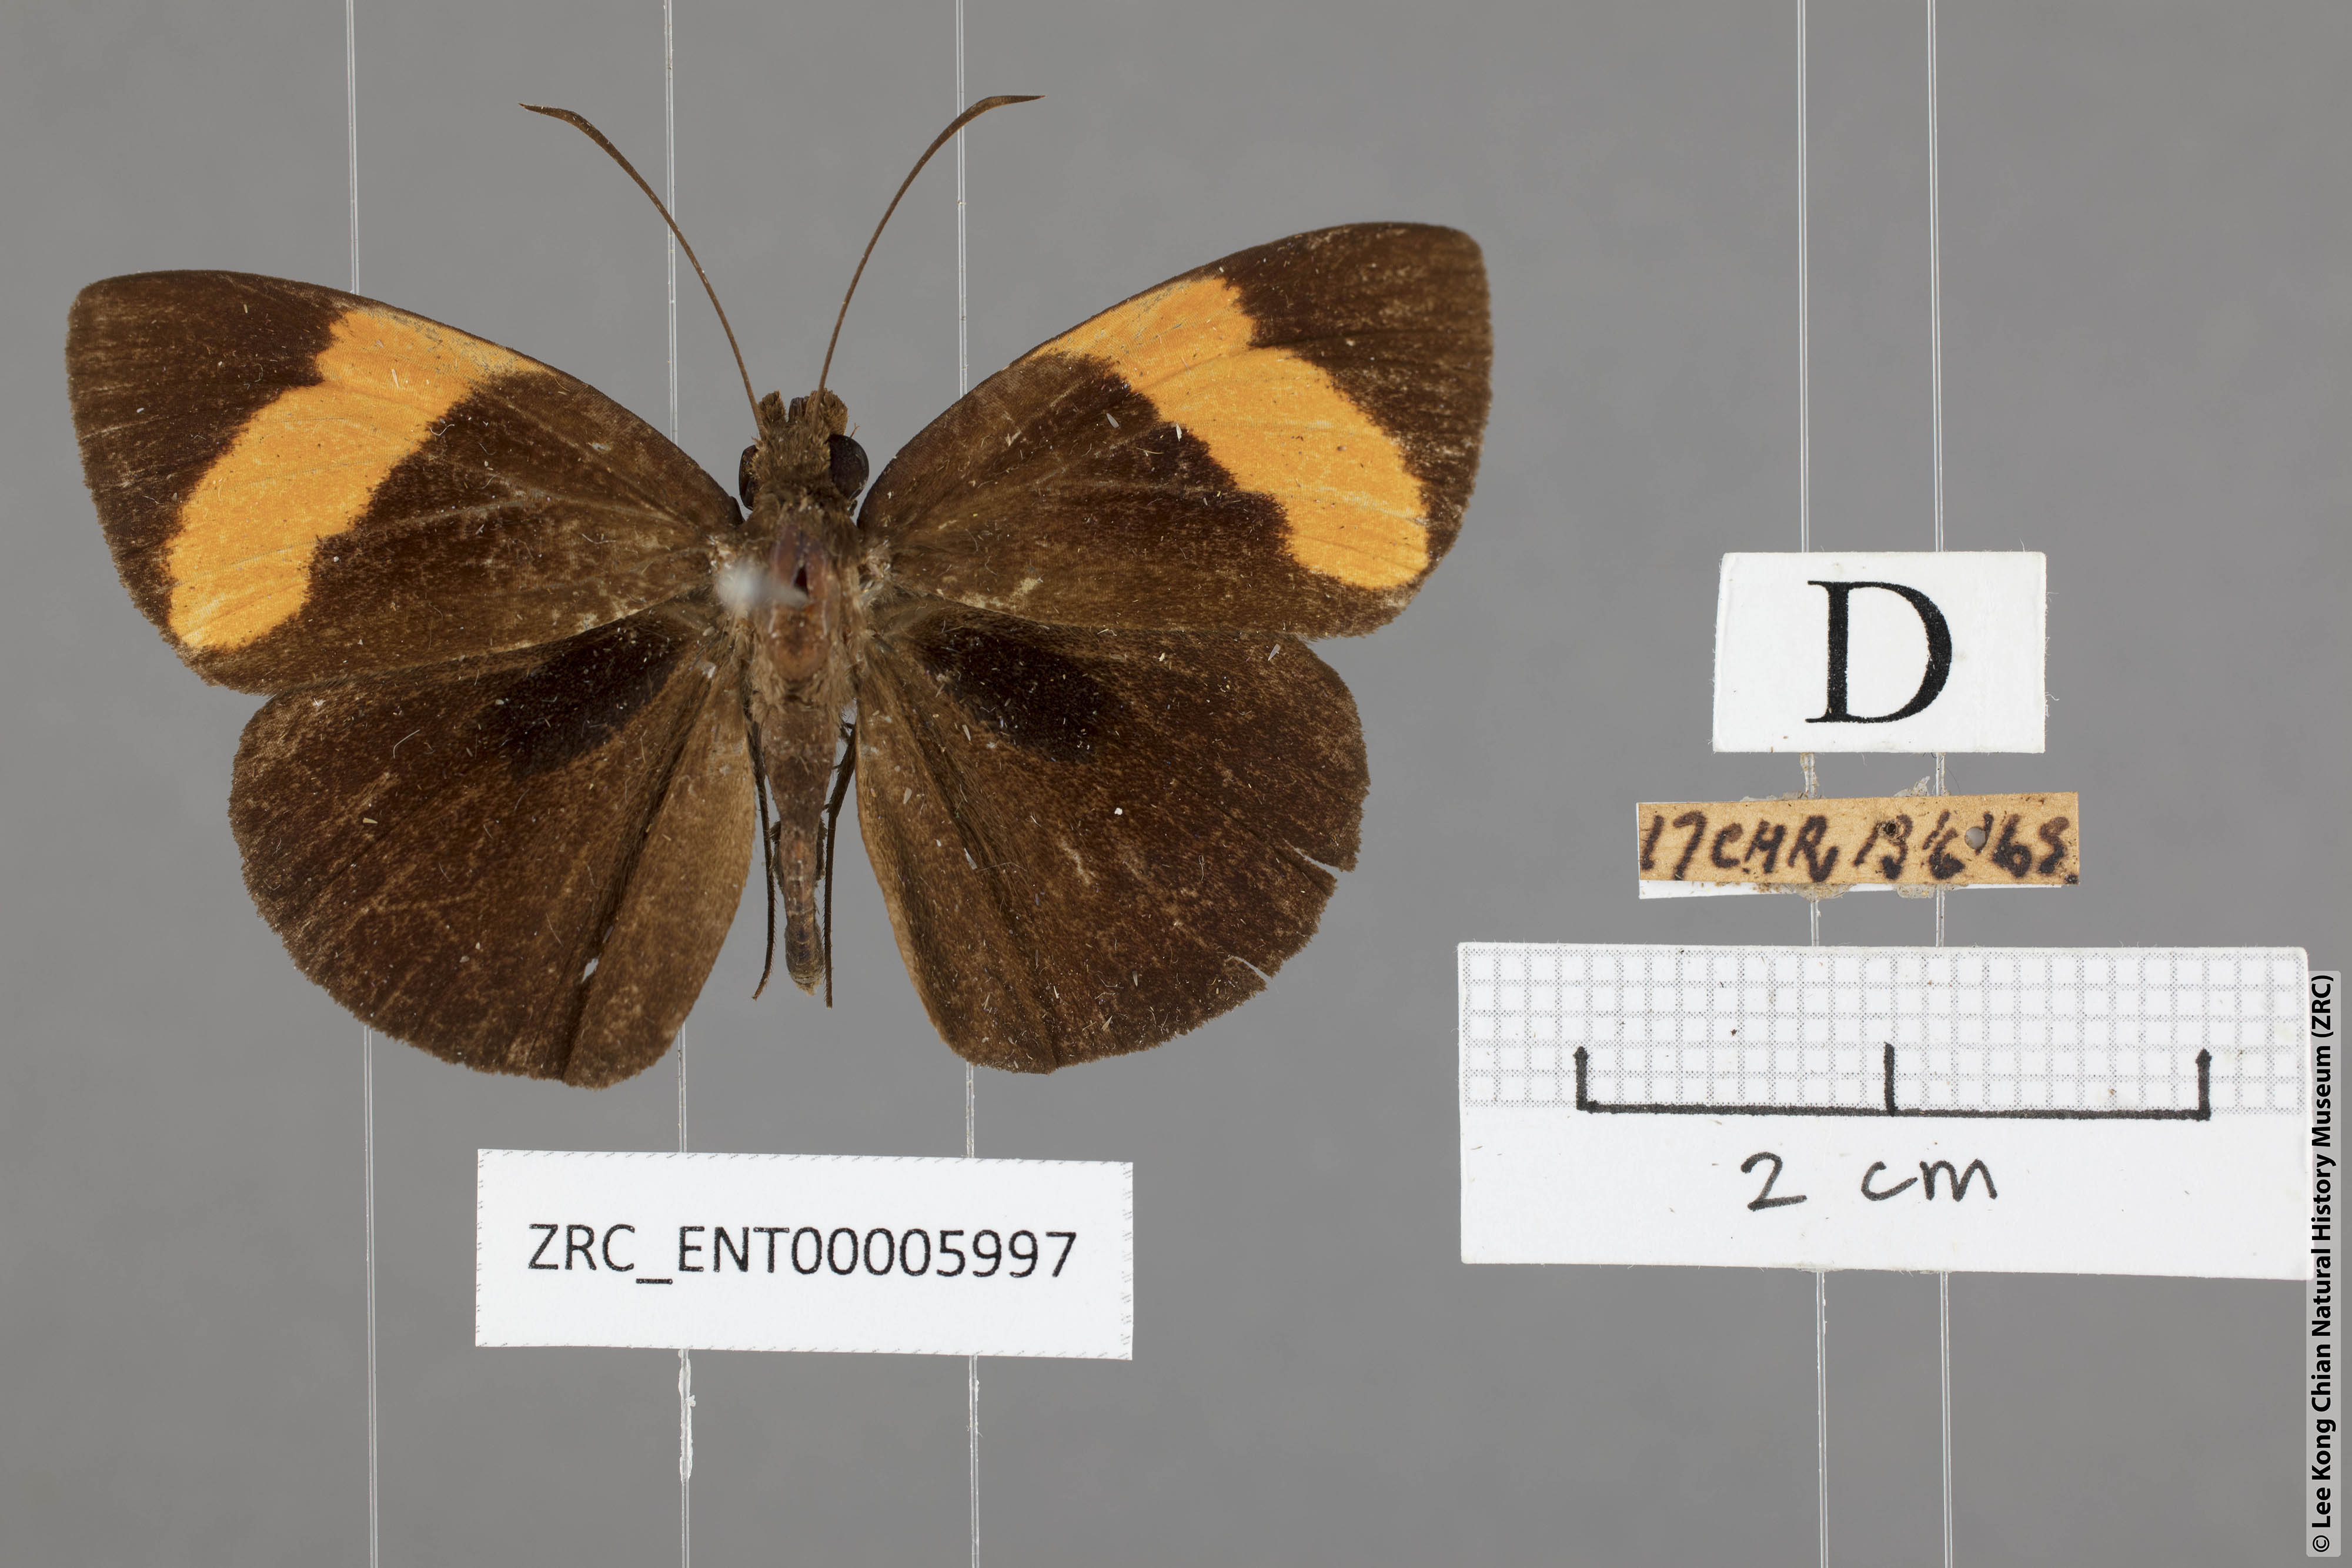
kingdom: Animalia
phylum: Arthropoda
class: Insecta
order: Lepidoptera
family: Hesperiidae
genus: Ancistroides
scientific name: Ancistroides armatus
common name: Red demon
